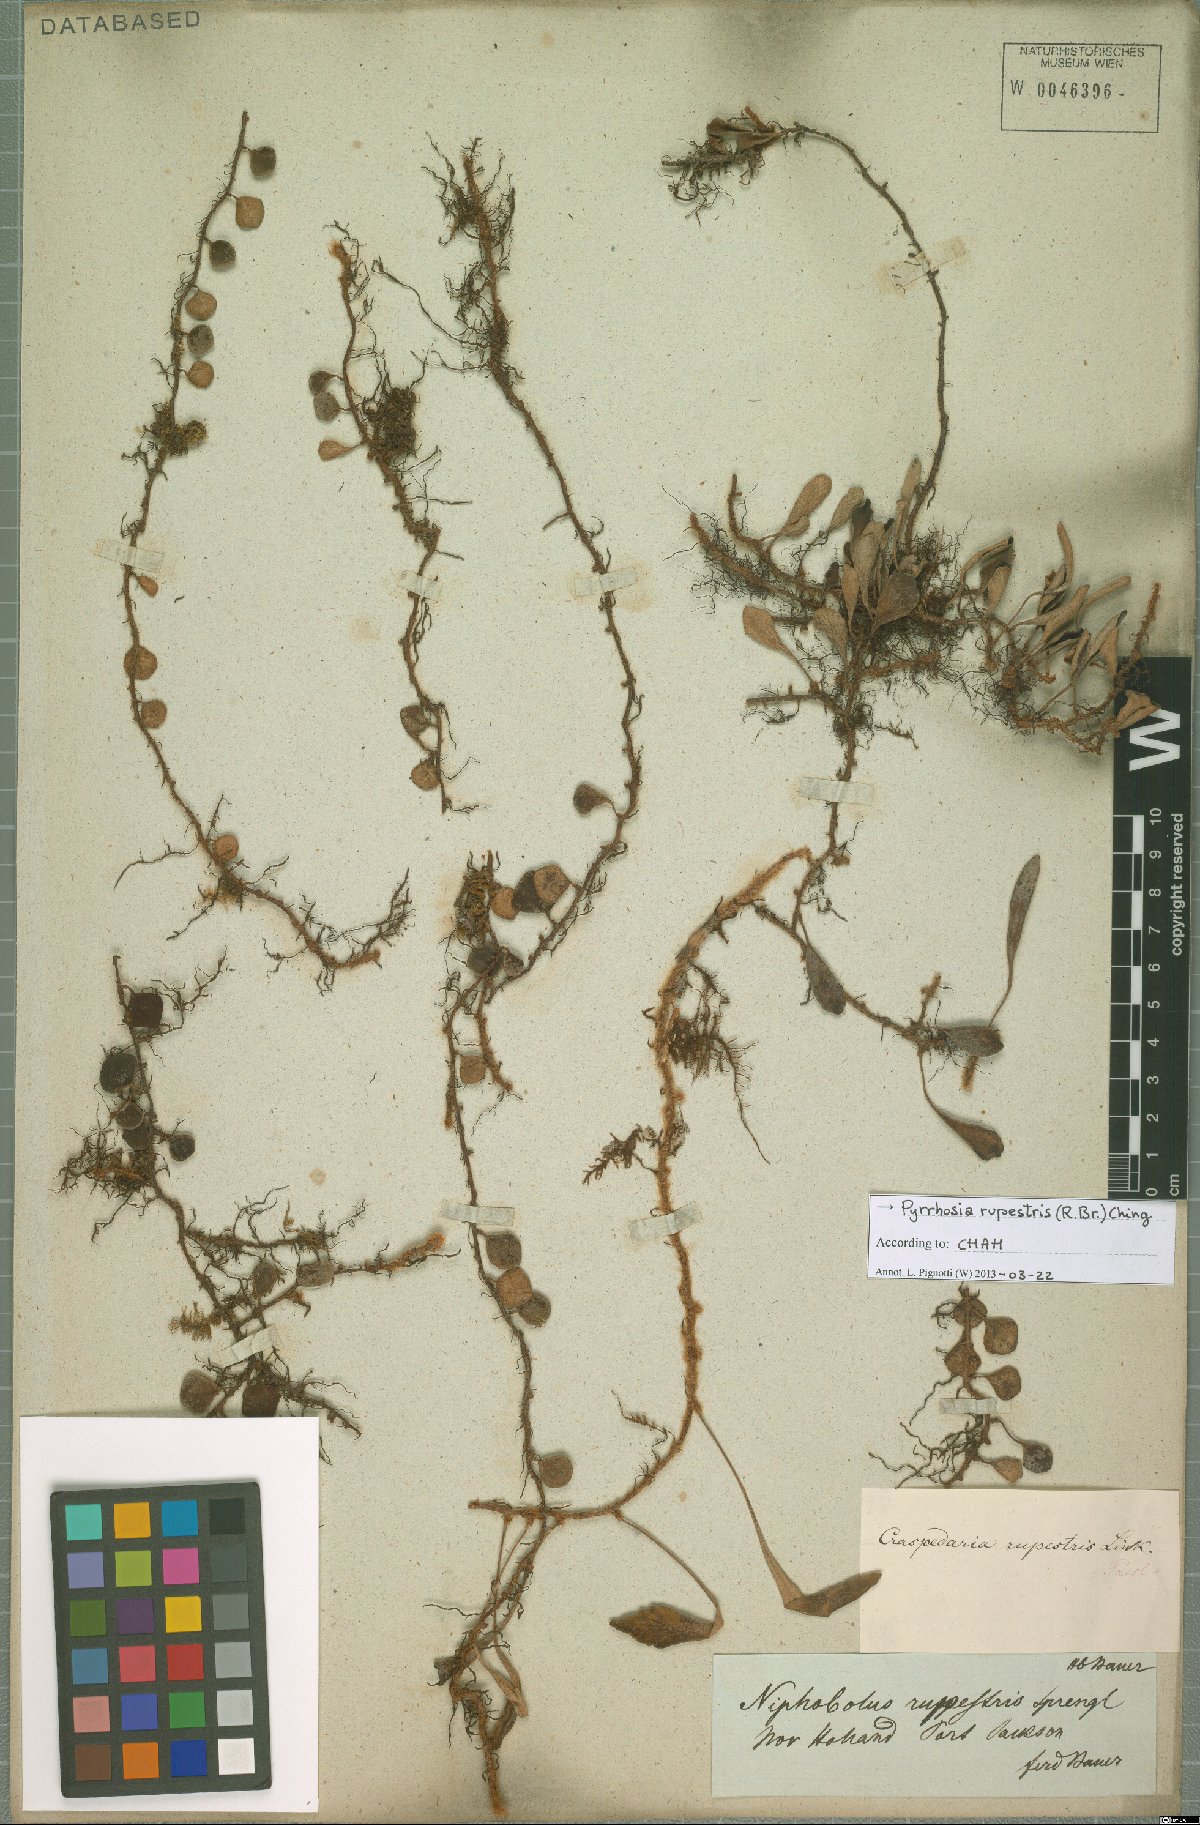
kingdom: Plantae
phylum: Tracheophyta
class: Polypodiopsida
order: Polypodiales
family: Polypodiaceae
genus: Pyrrosia
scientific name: Pyrrosia rupestris
